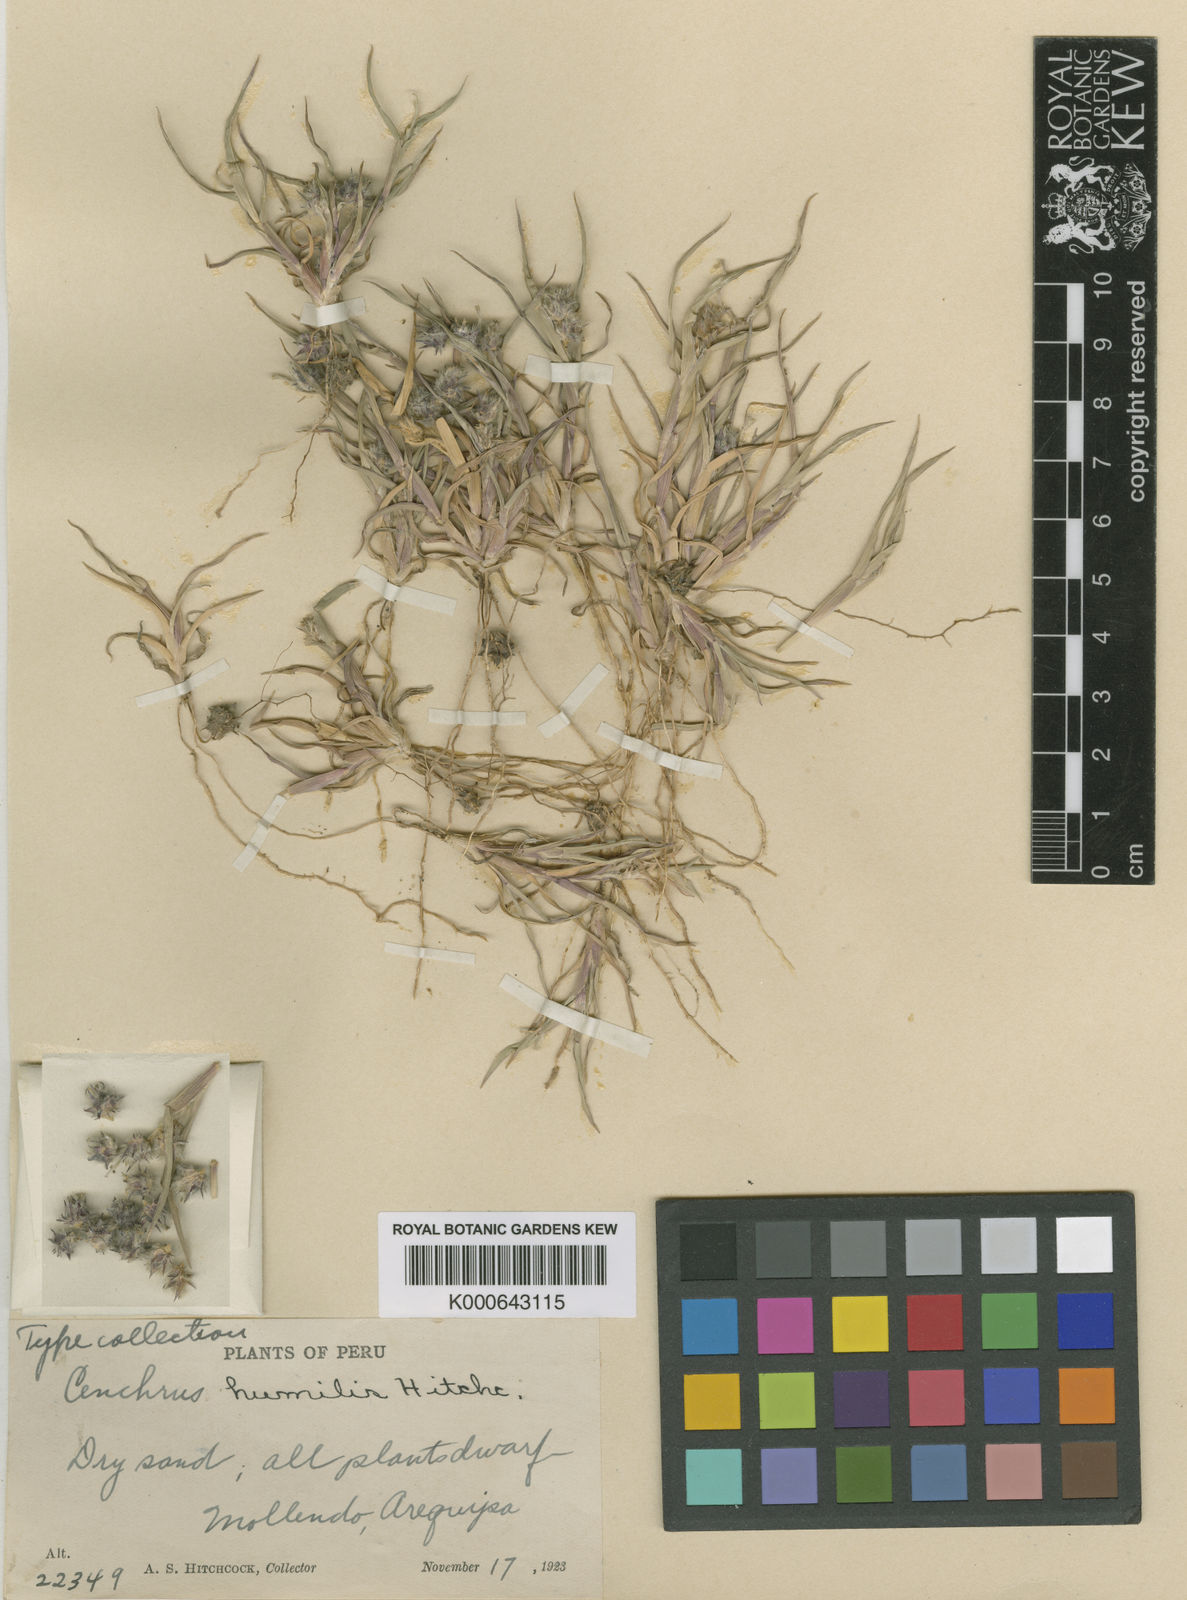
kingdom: Plantae
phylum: Tracheophyta
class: Liliopsida
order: Poales
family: Poaceae
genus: Cenchrus
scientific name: Cenchrus spinifex
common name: Coast sandbur
